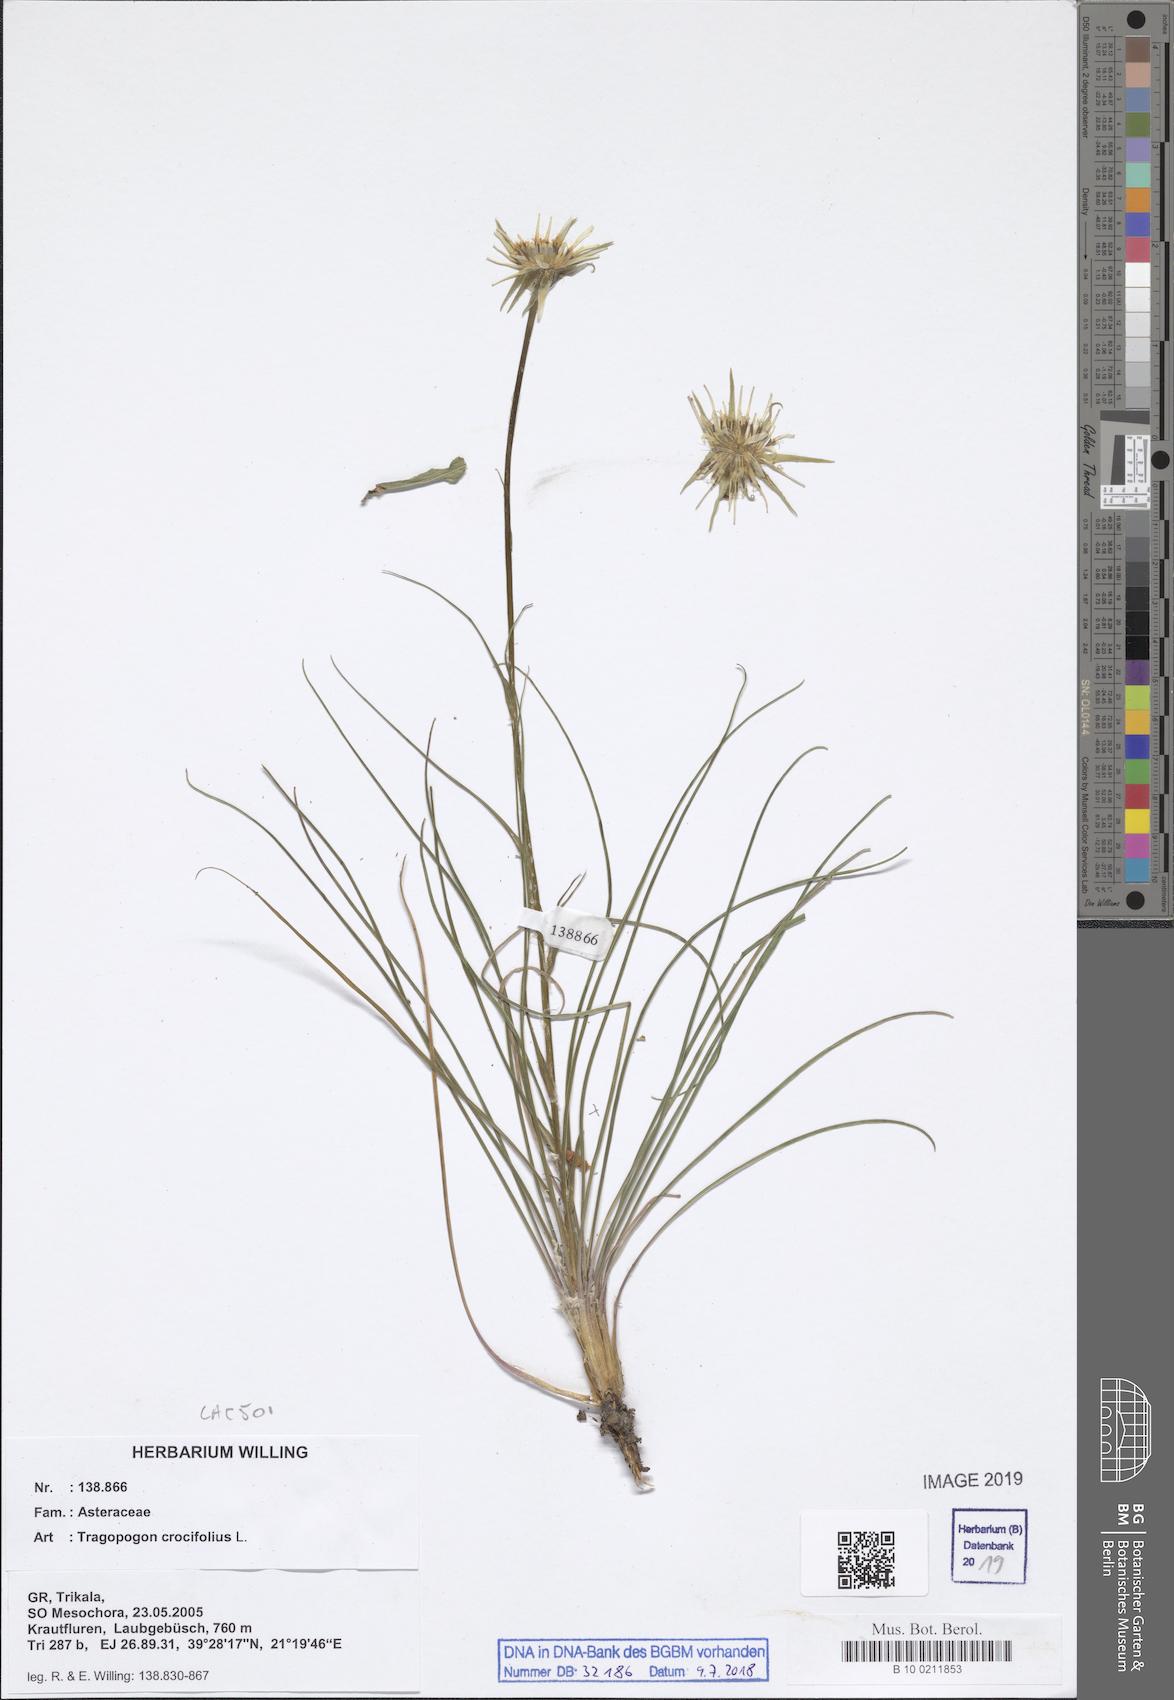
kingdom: Plantae
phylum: Tracheophyta
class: Magnoliopsida
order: Asterales
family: Asteraceae
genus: Tragopogon
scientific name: Tragopogon crocifolius
